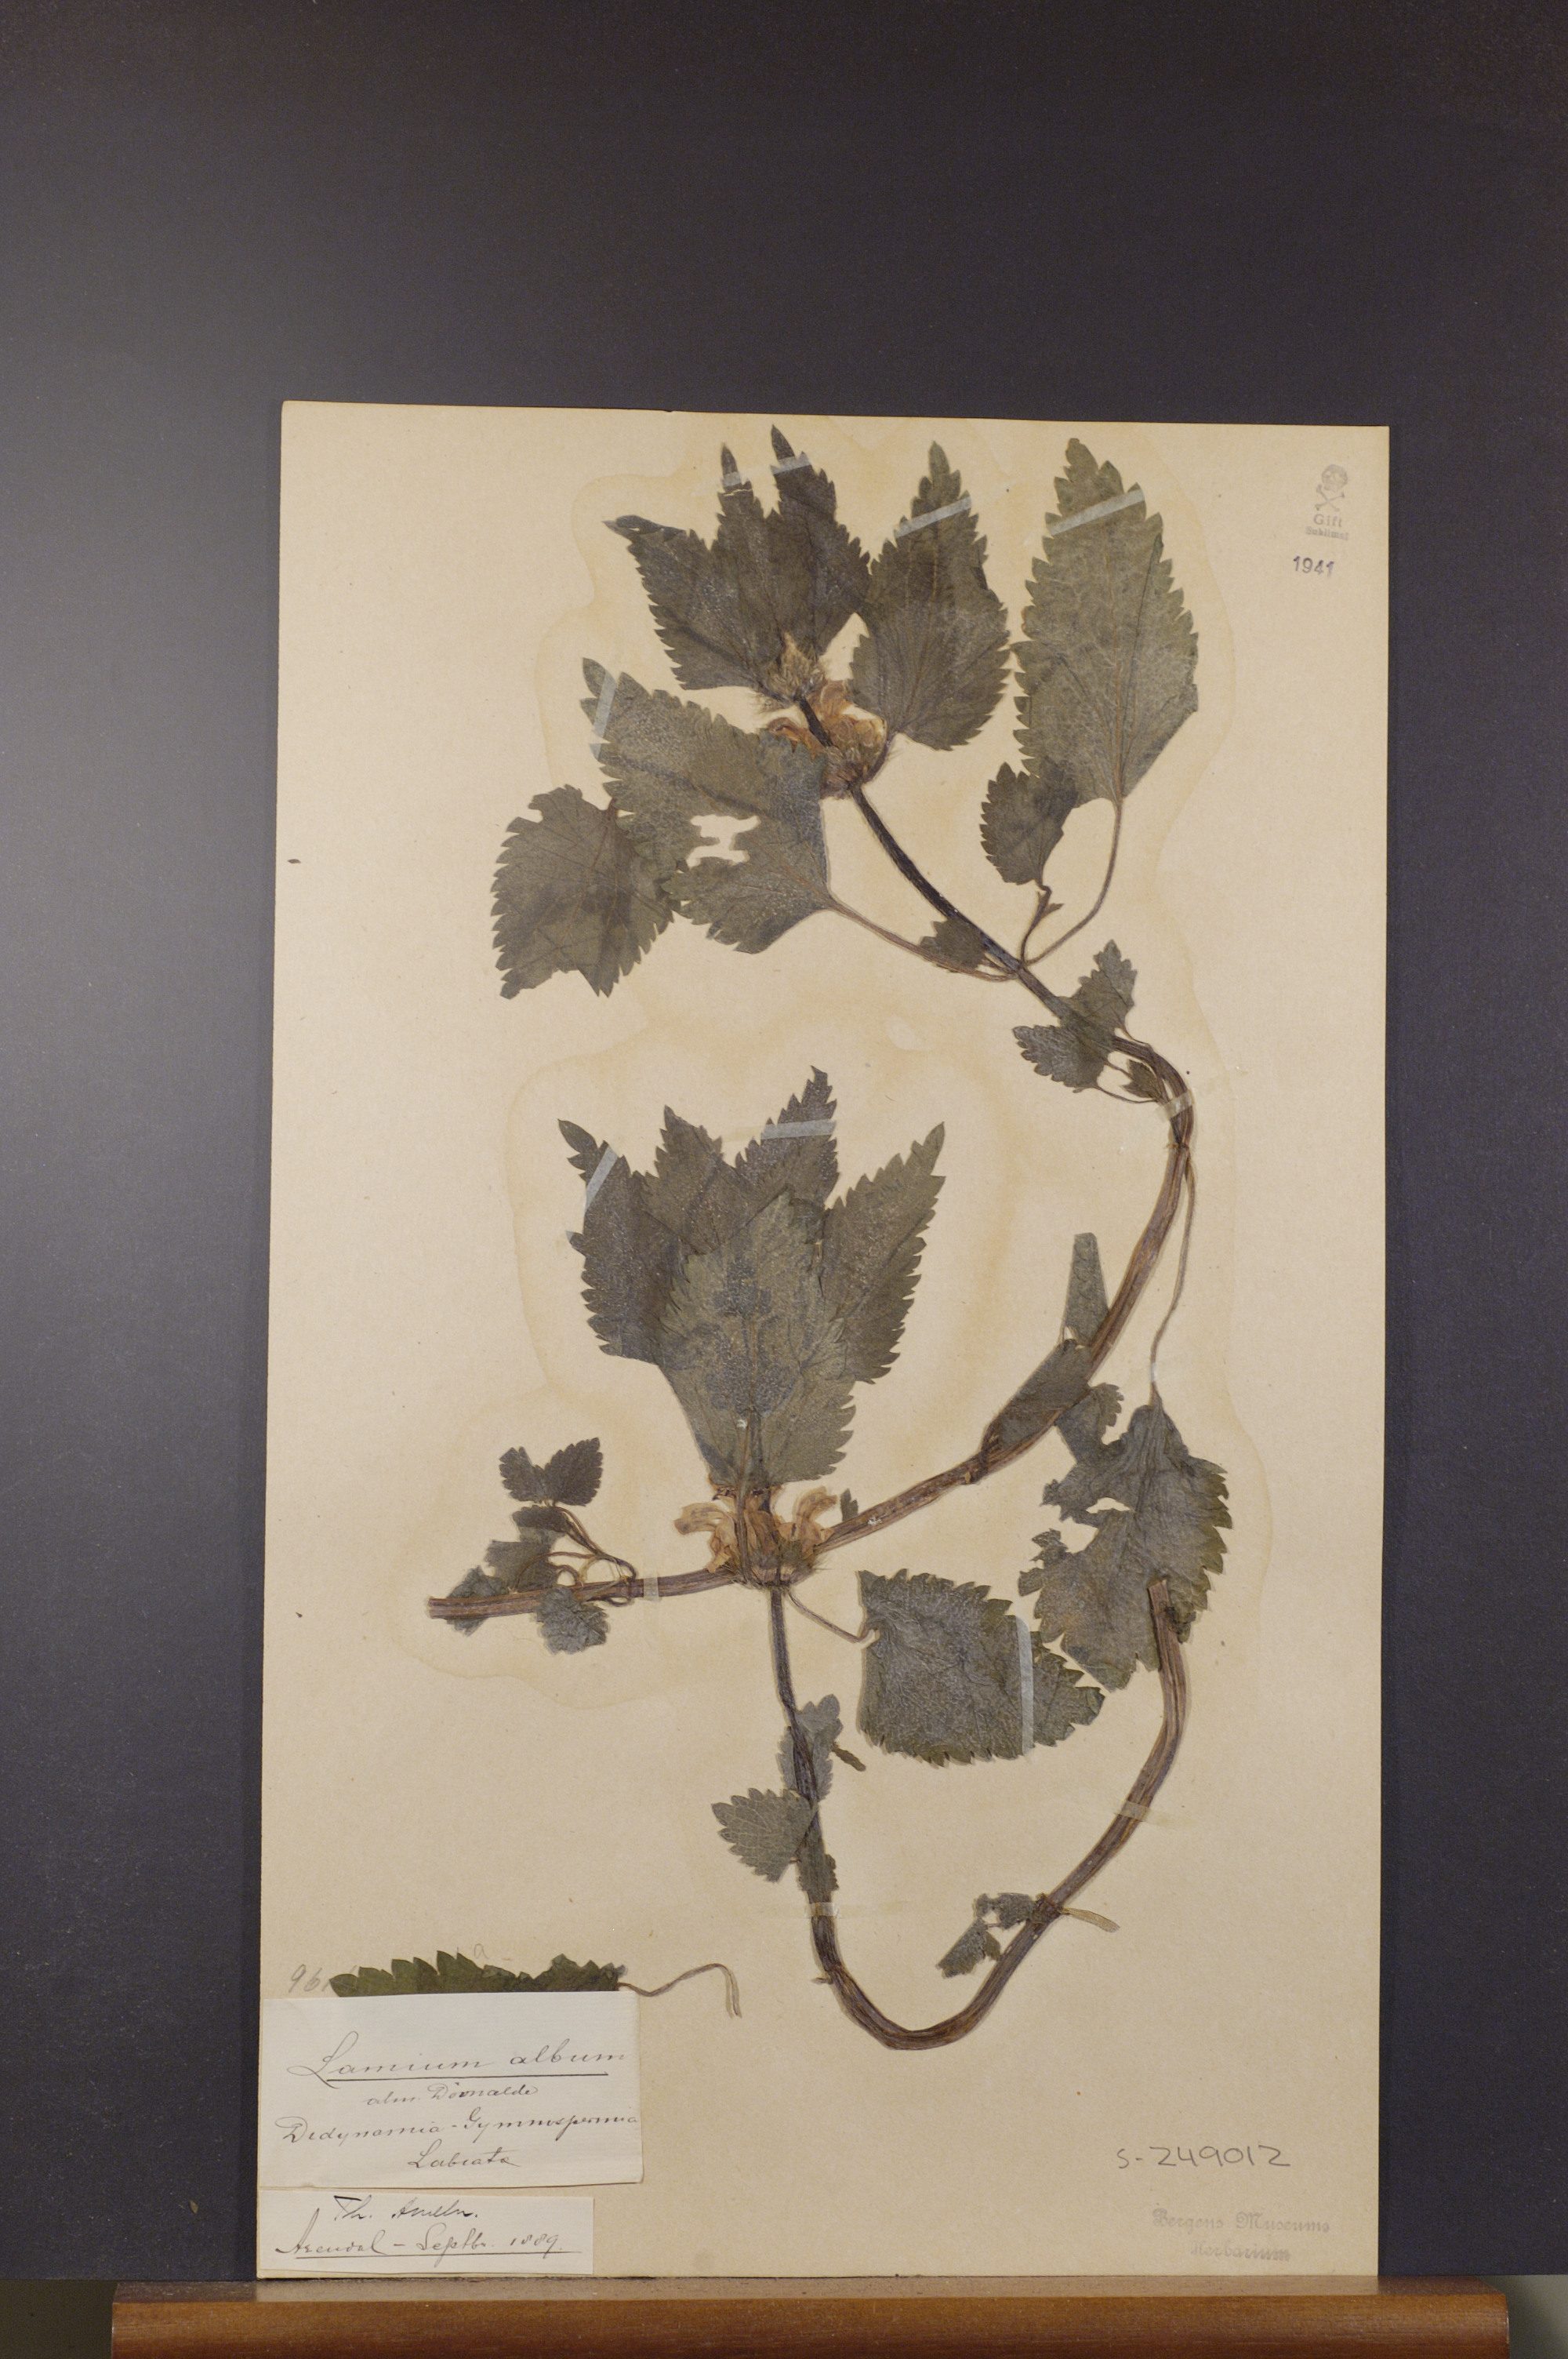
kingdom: Plantae
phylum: Tracheophyta
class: Magnoliopsida
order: Lamiales
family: Lamiaceae
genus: Lamium
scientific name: Lamium album
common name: White dead-nettle
